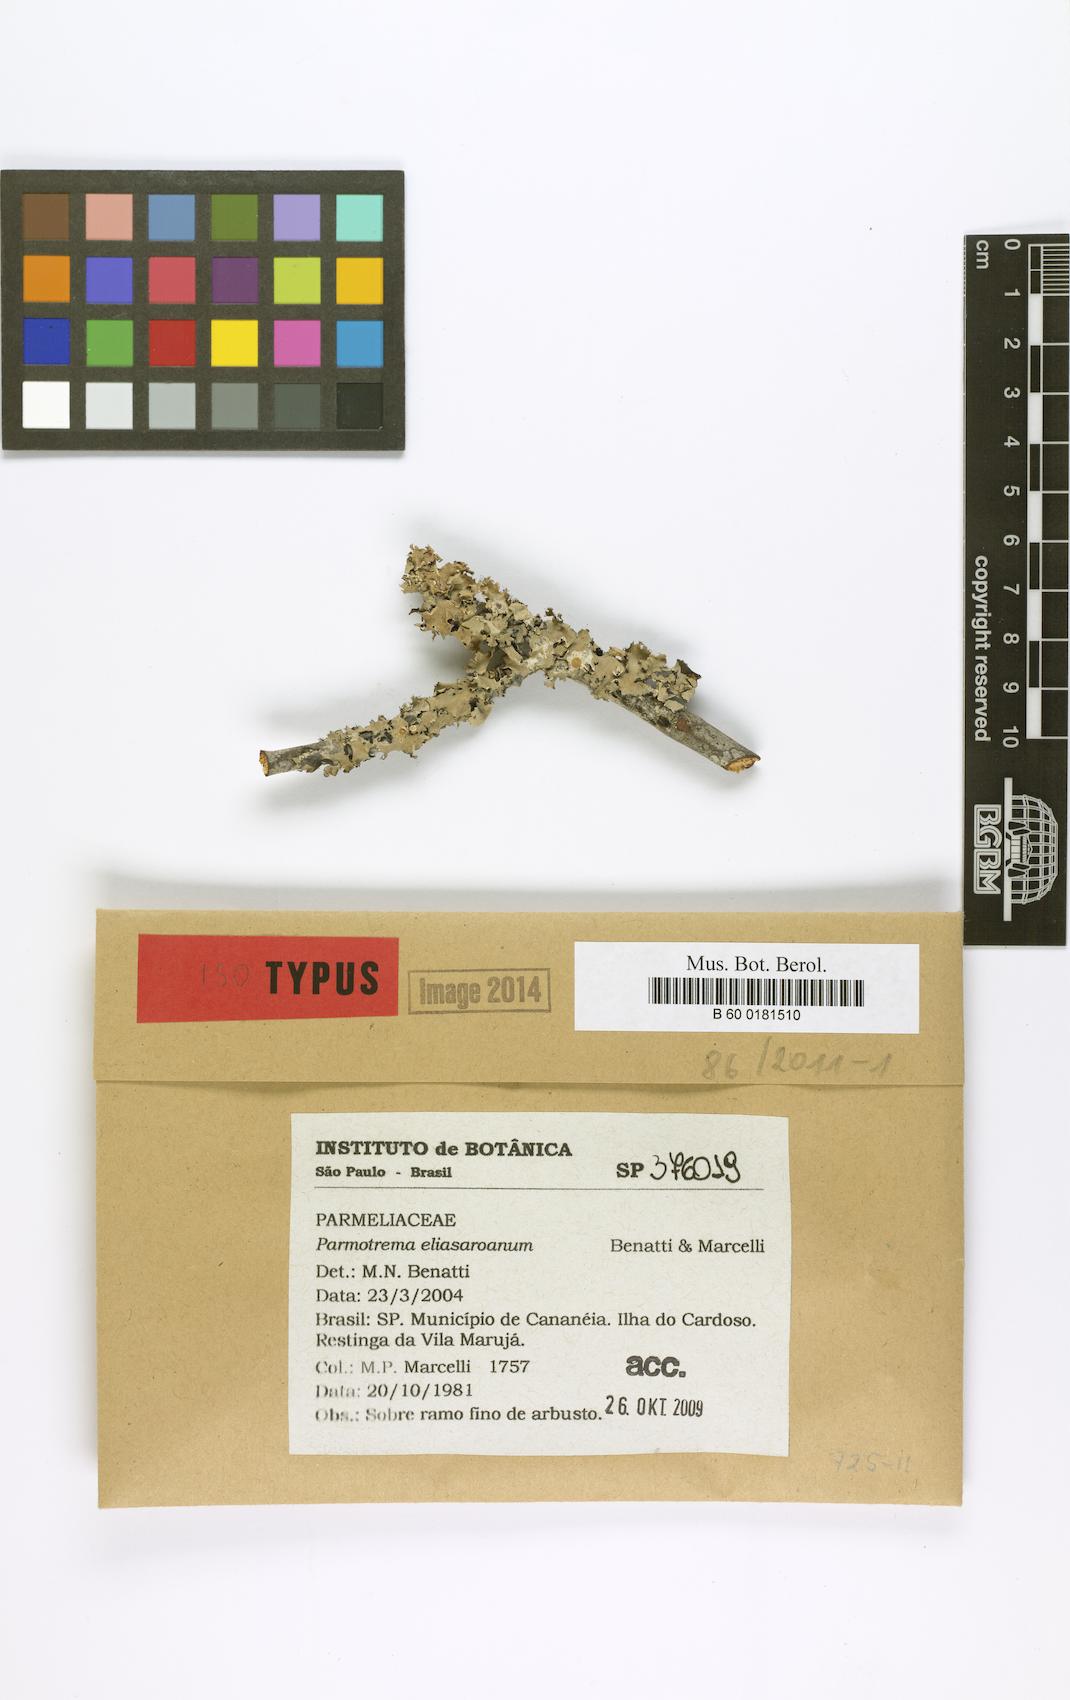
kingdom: Fungi
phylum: Ascomycota
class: Lecanoromycetes
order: Lecanorales
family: Parmeliaceae
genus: Parmotrema
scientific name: Parmotrema eliasaroanum
